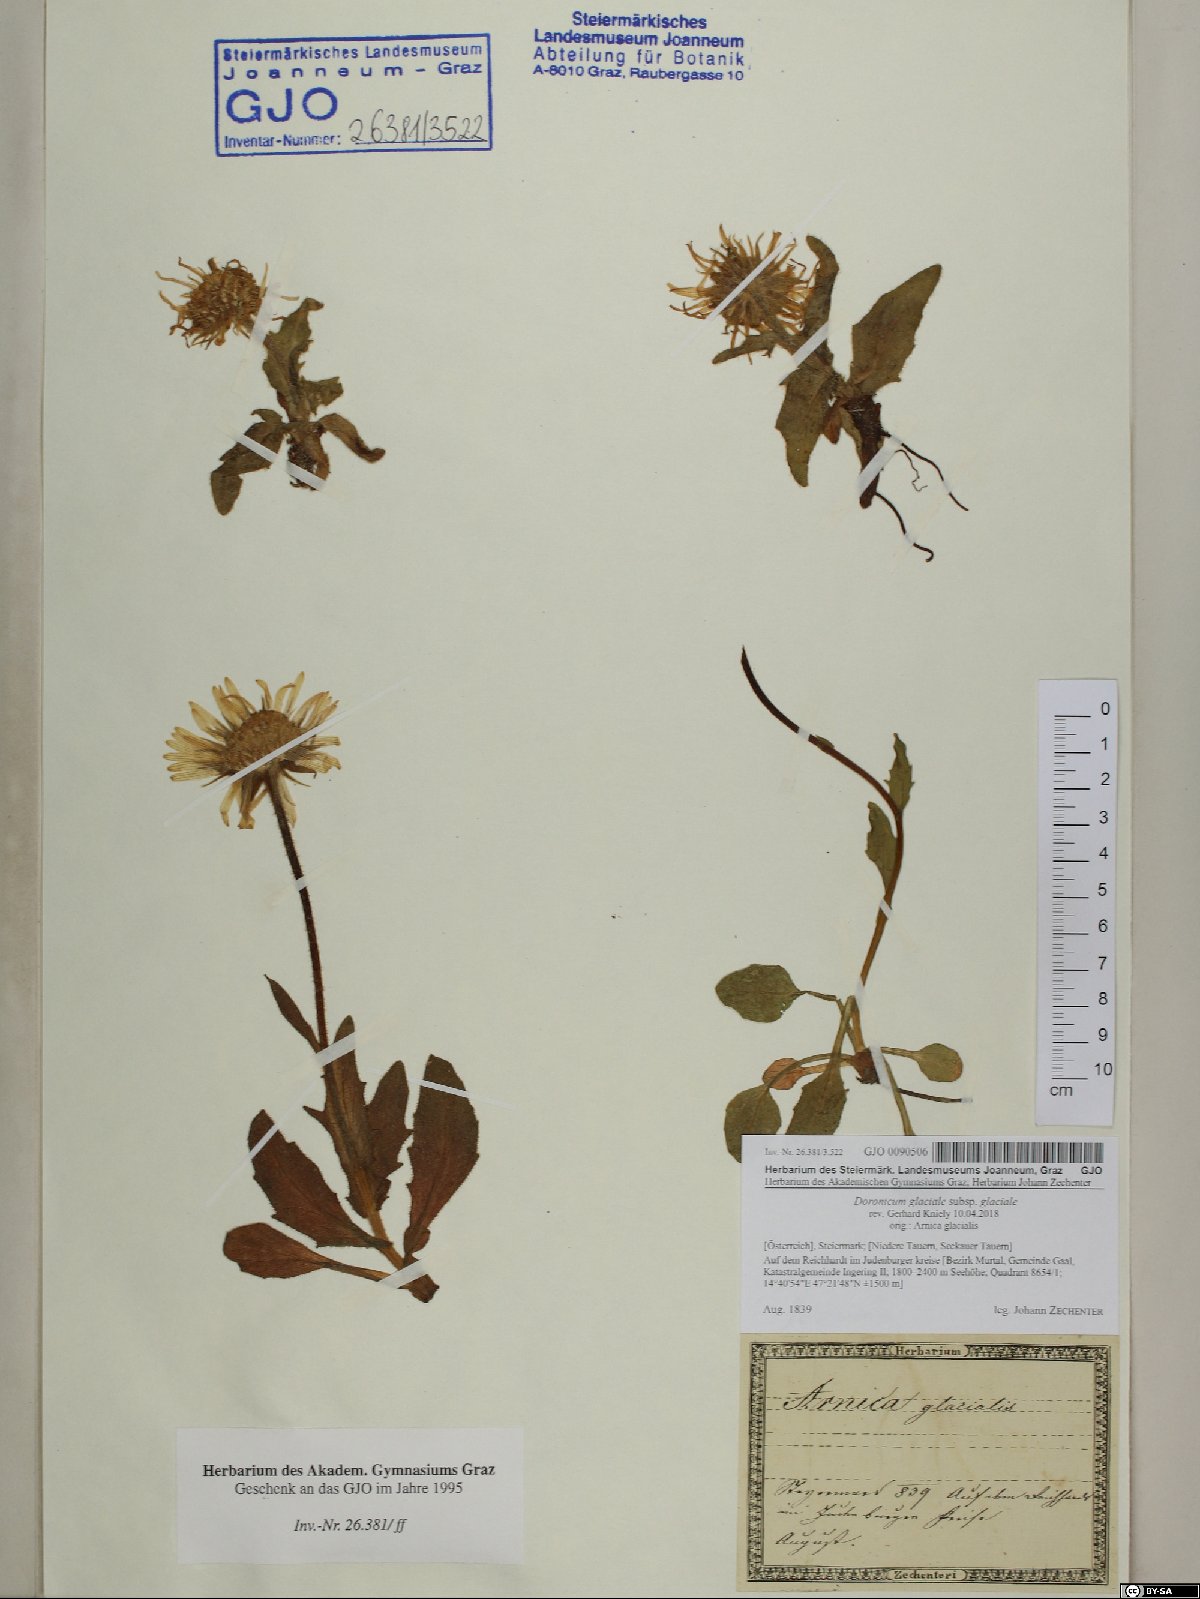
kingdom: Plantae
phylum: Tracheophyta
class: Magnoliopsida
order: Asterales
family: Asteraceae
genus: Doronicum
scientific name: Doronicum glaciale
